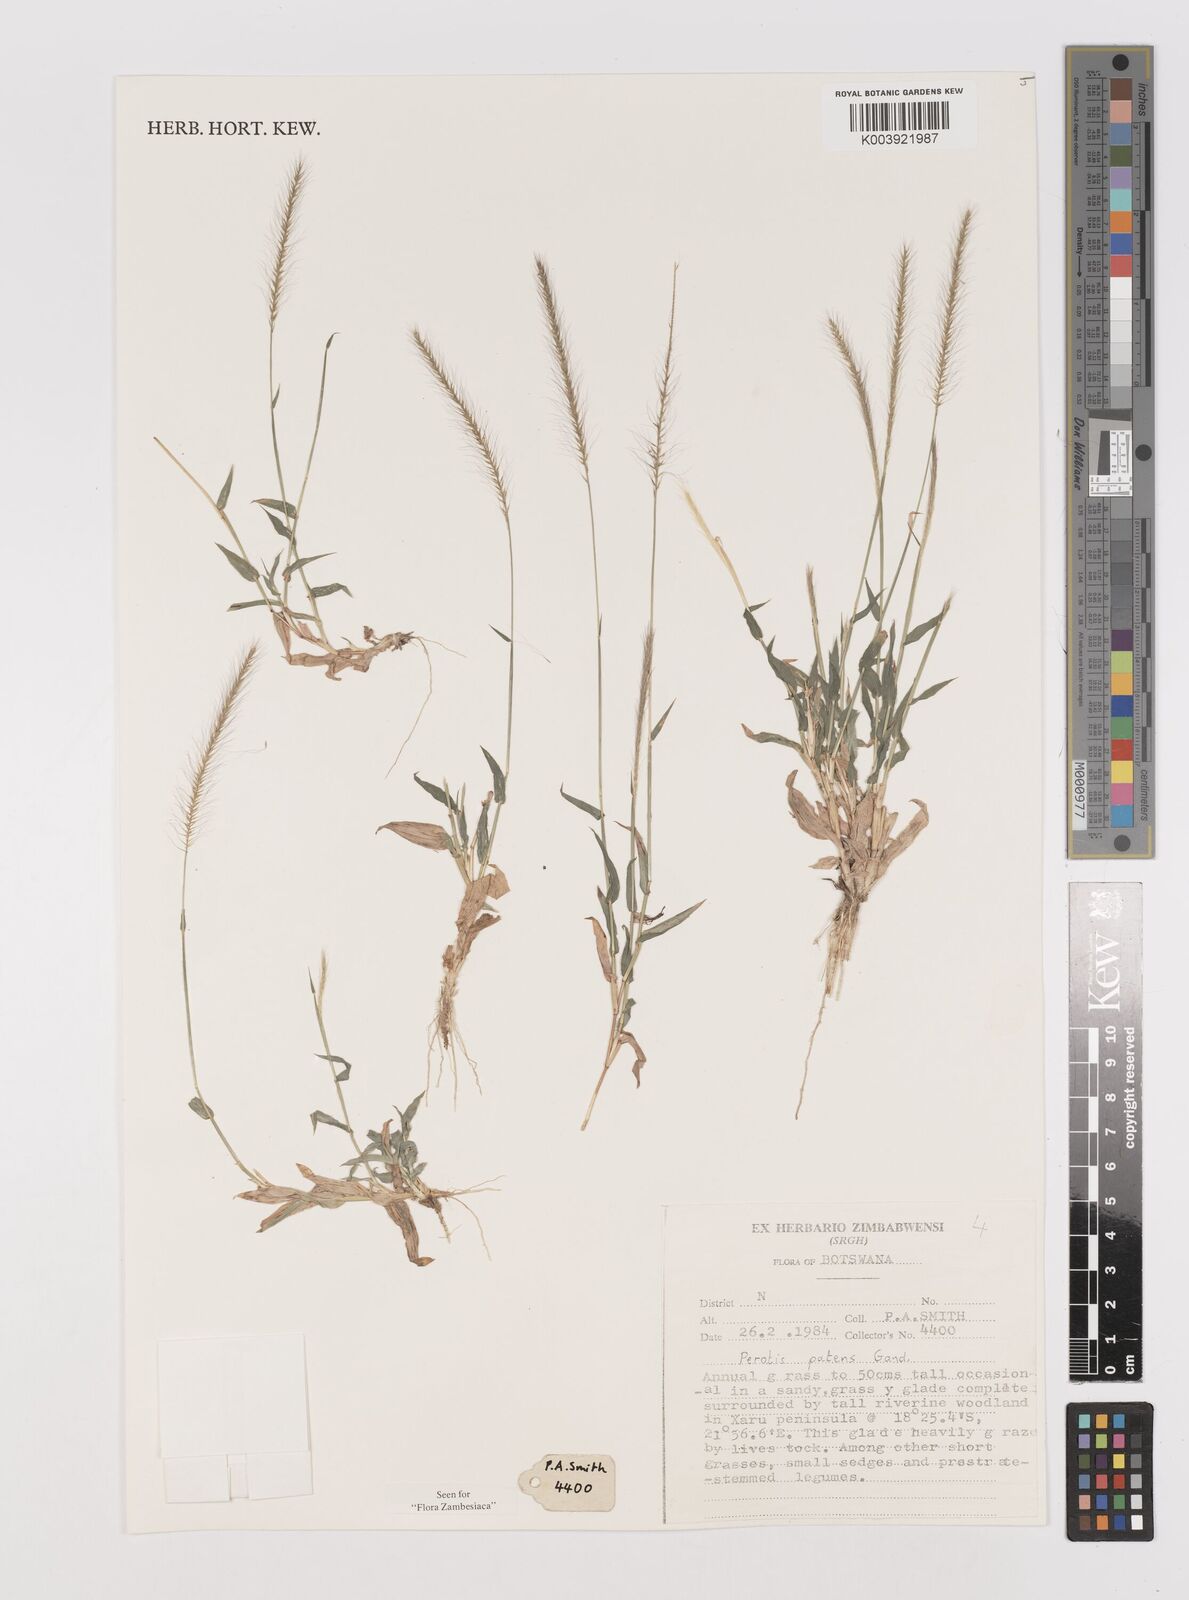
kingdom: Plantae
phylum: Tracheophyta
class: Liliopsida
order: Poales
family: Poaceae
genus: Perotis
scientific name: Perotis patens
